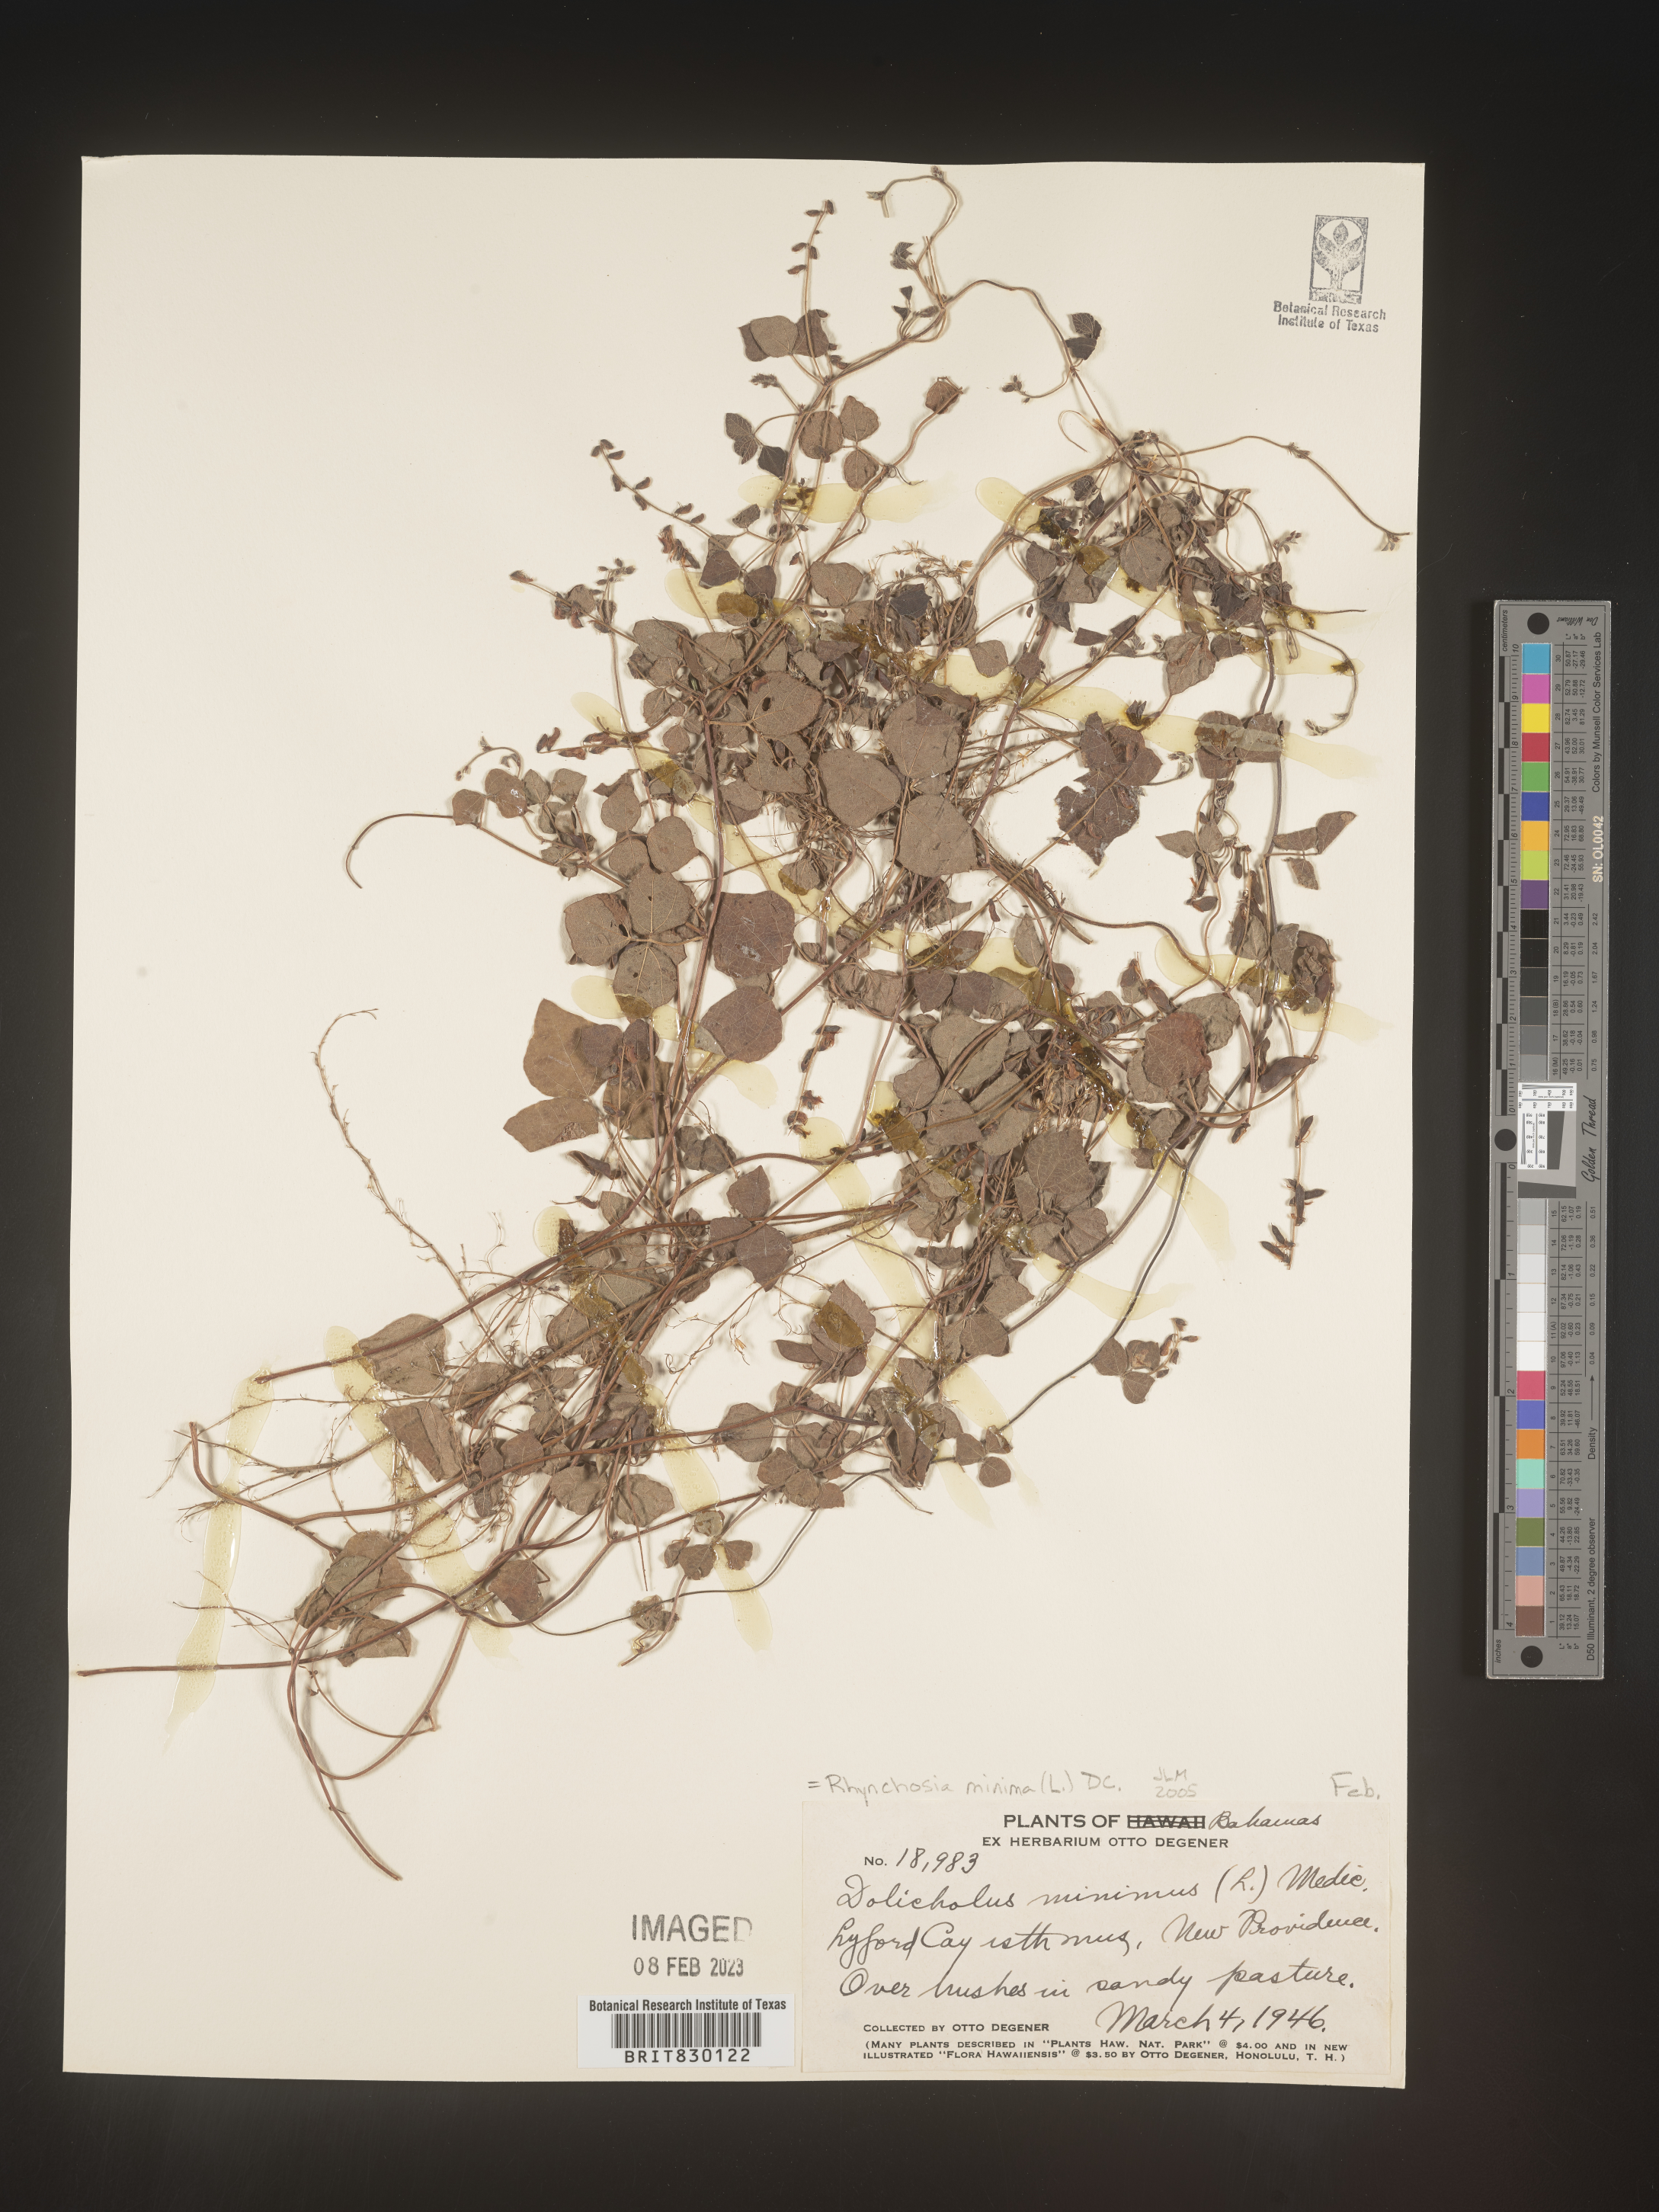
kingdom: Plantae
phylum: Tracheophyta
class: Magnoliopsida
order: Fabales
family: Fabaceae
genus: Rhynchosia
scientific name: Rhynchosia
